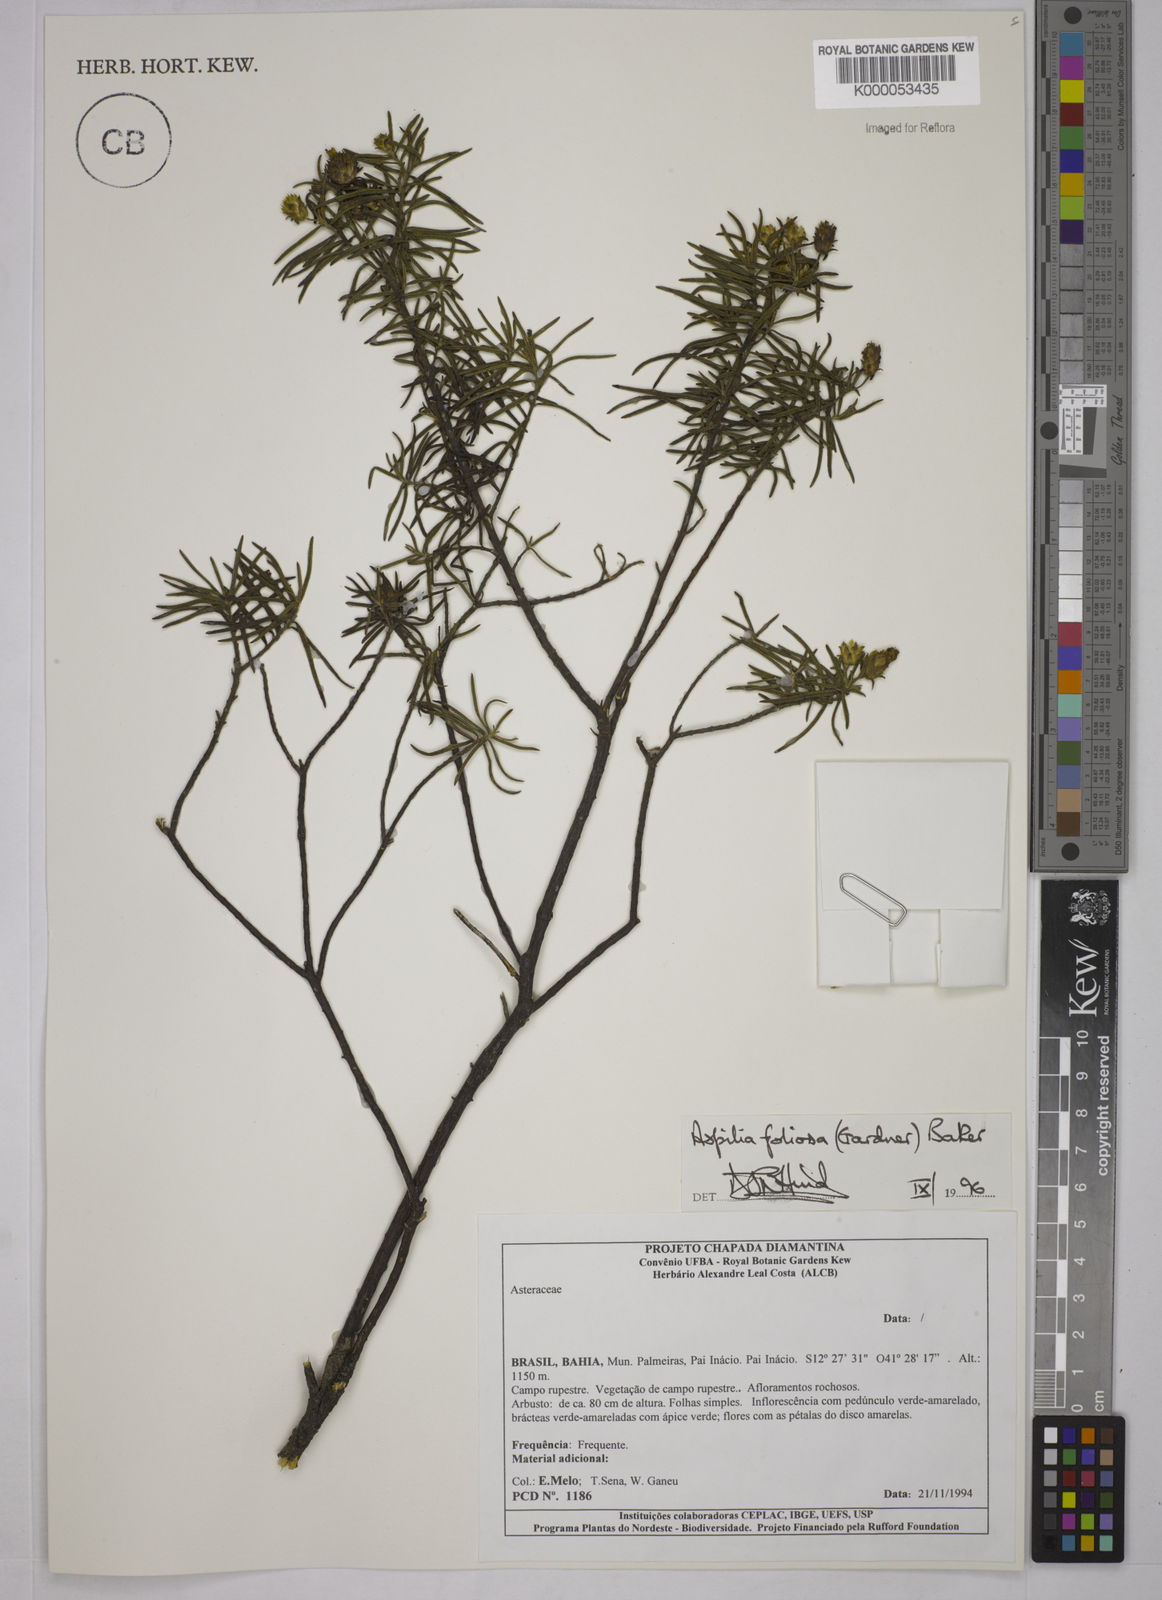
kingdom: Plantae
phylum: Tracheophyta
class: Magnoliopsida
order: Asterales
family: Asteraceae
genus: Aspilia
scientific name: Aspilia
